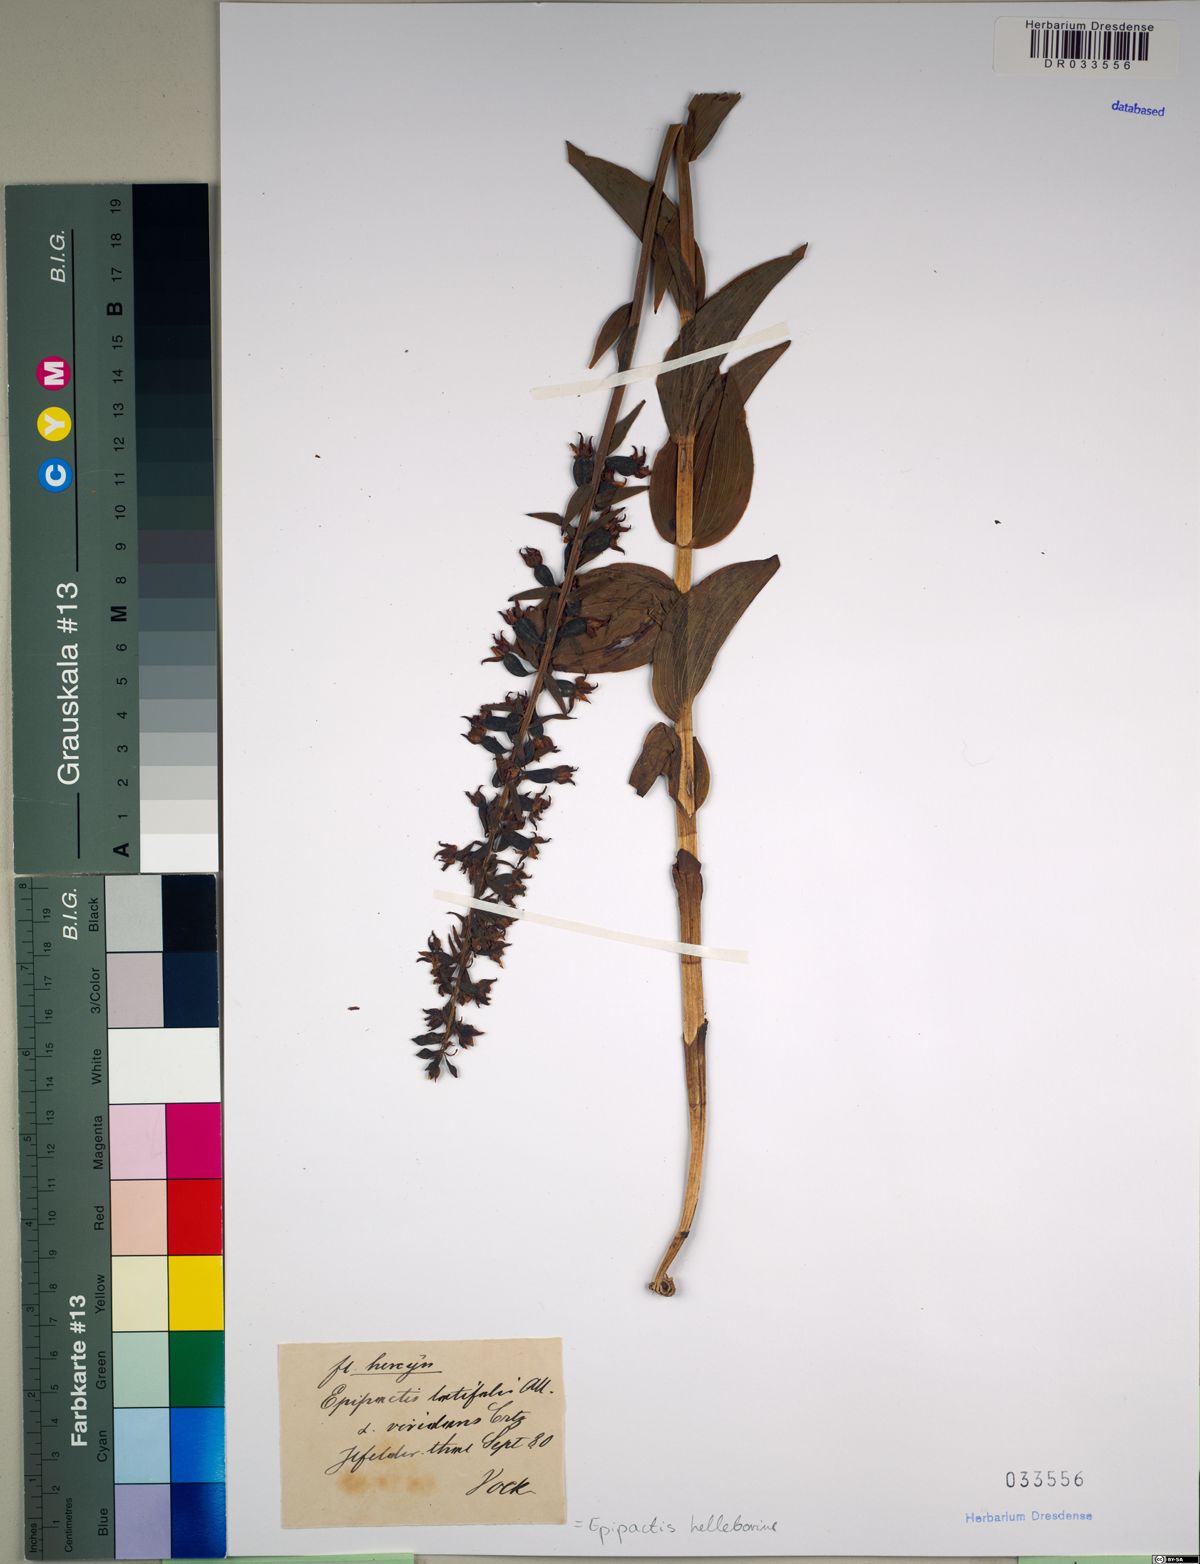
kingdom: Plantae
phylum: Tracheophyta
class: Liliopsida
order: Asparagales
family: Orchidaceae
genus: Epipactis
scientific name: Epipactis helleborine
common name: Broad-leaved helleborine
